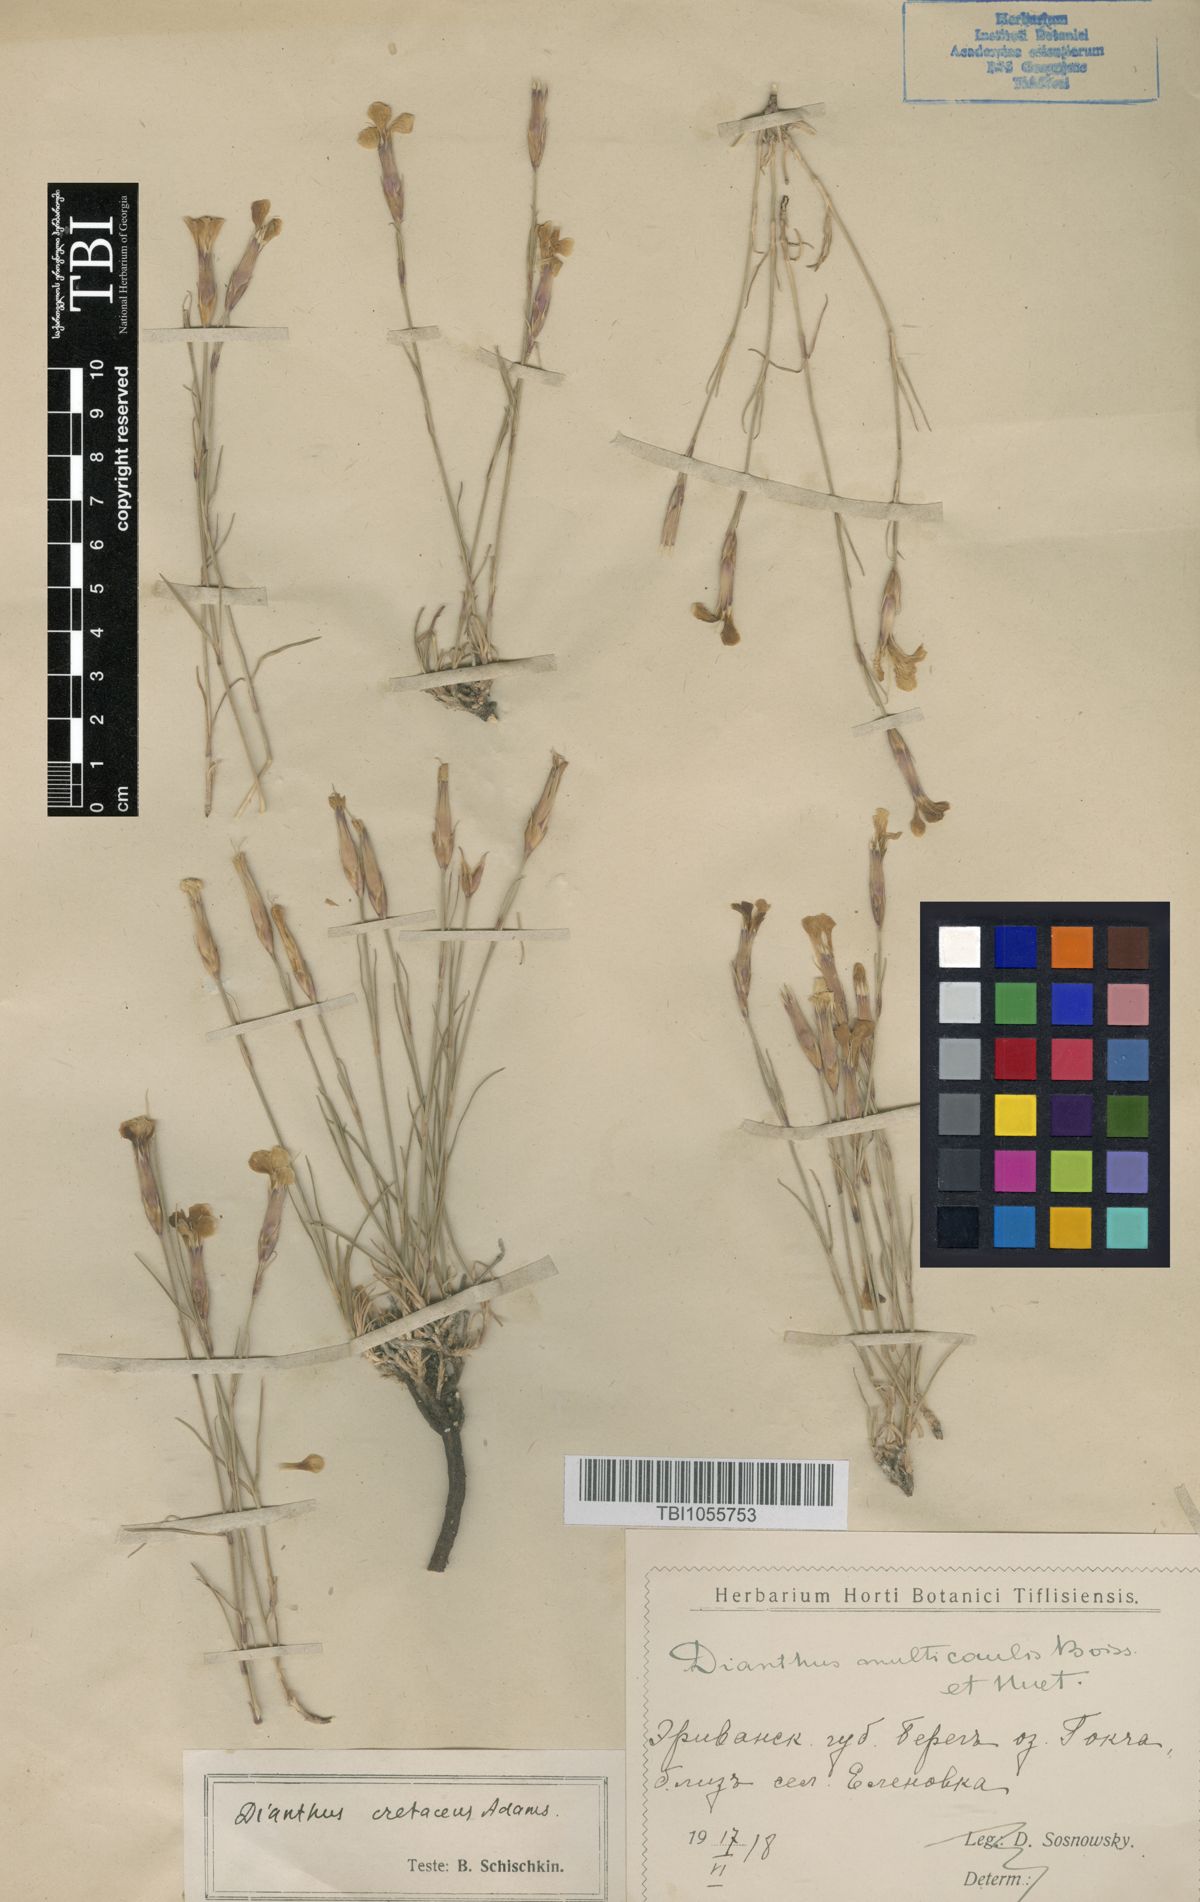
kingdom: Plantae
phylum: Tracheophyta
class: Magnoliopsida
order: Caryophyllales
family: Caryophyllaceae
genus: Dianthus
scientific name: Dianthus cretaceus
